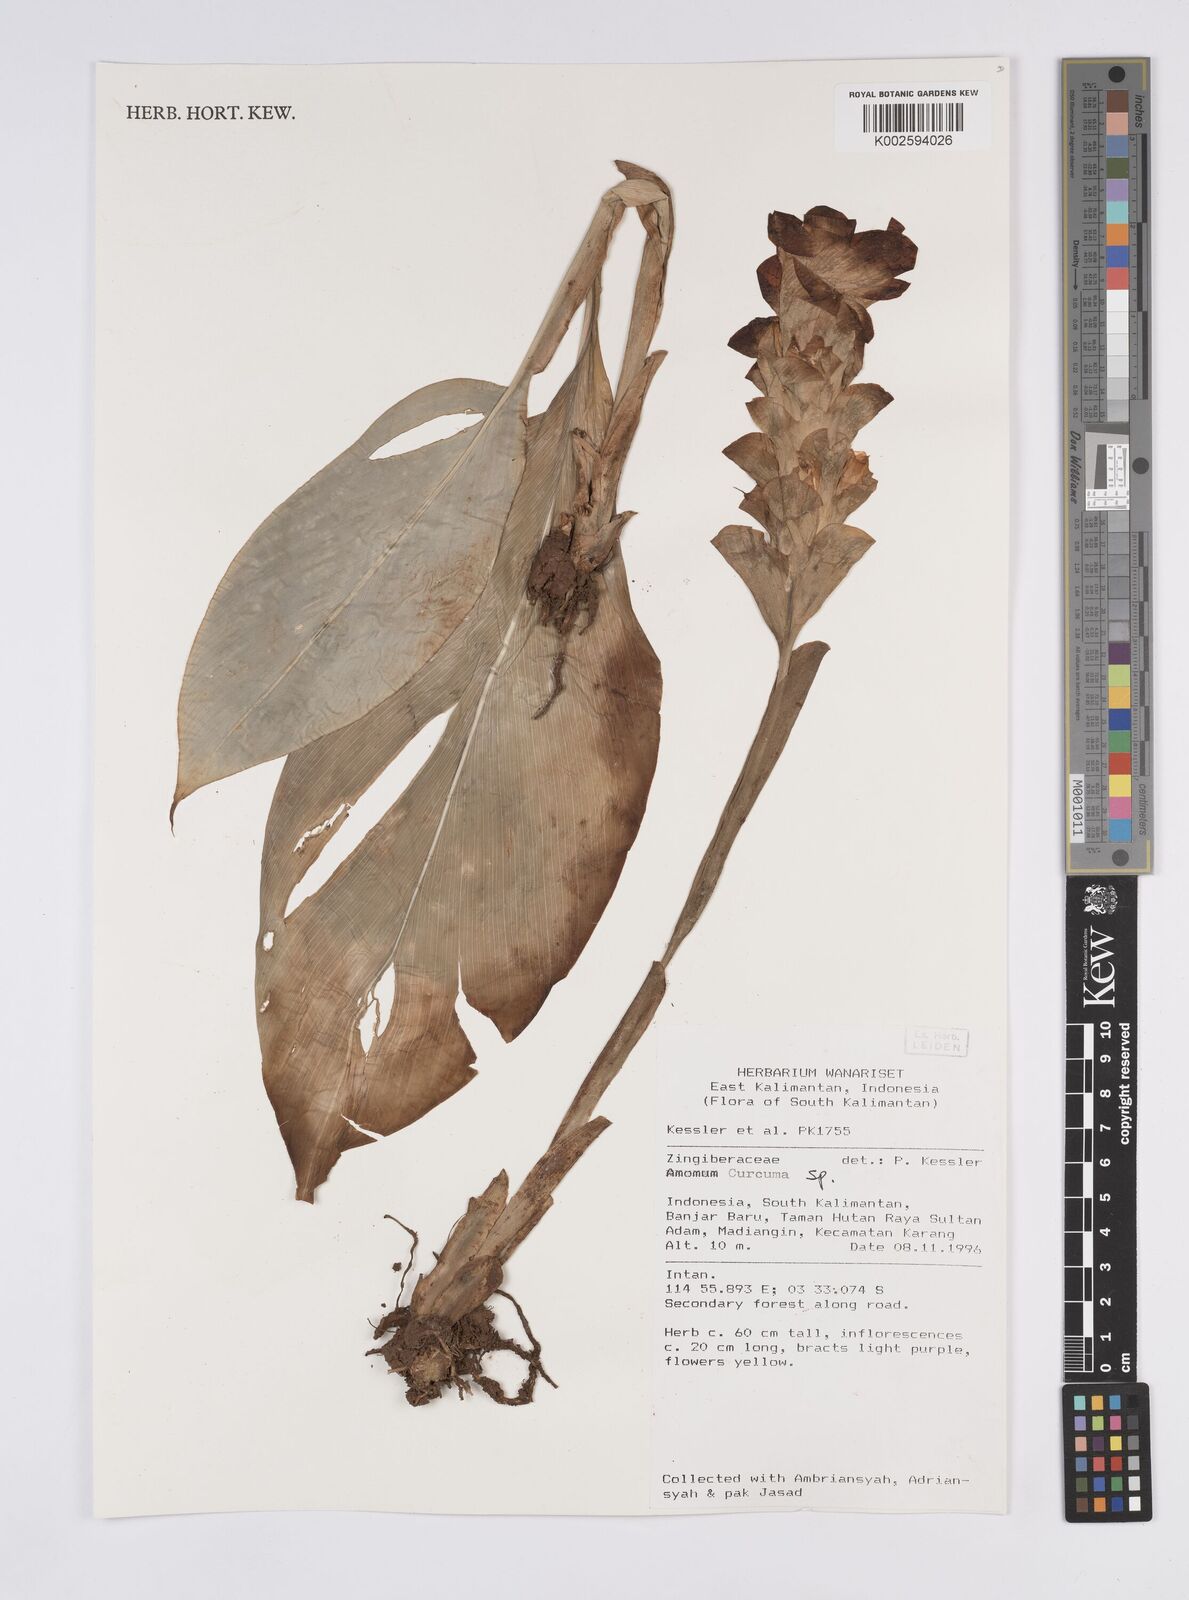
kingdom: Plantae
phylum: Tracheophyta
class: Liliopsida
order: Zingiberales
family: Zingiberaceae
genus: Curcuma
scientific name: Curcuma
